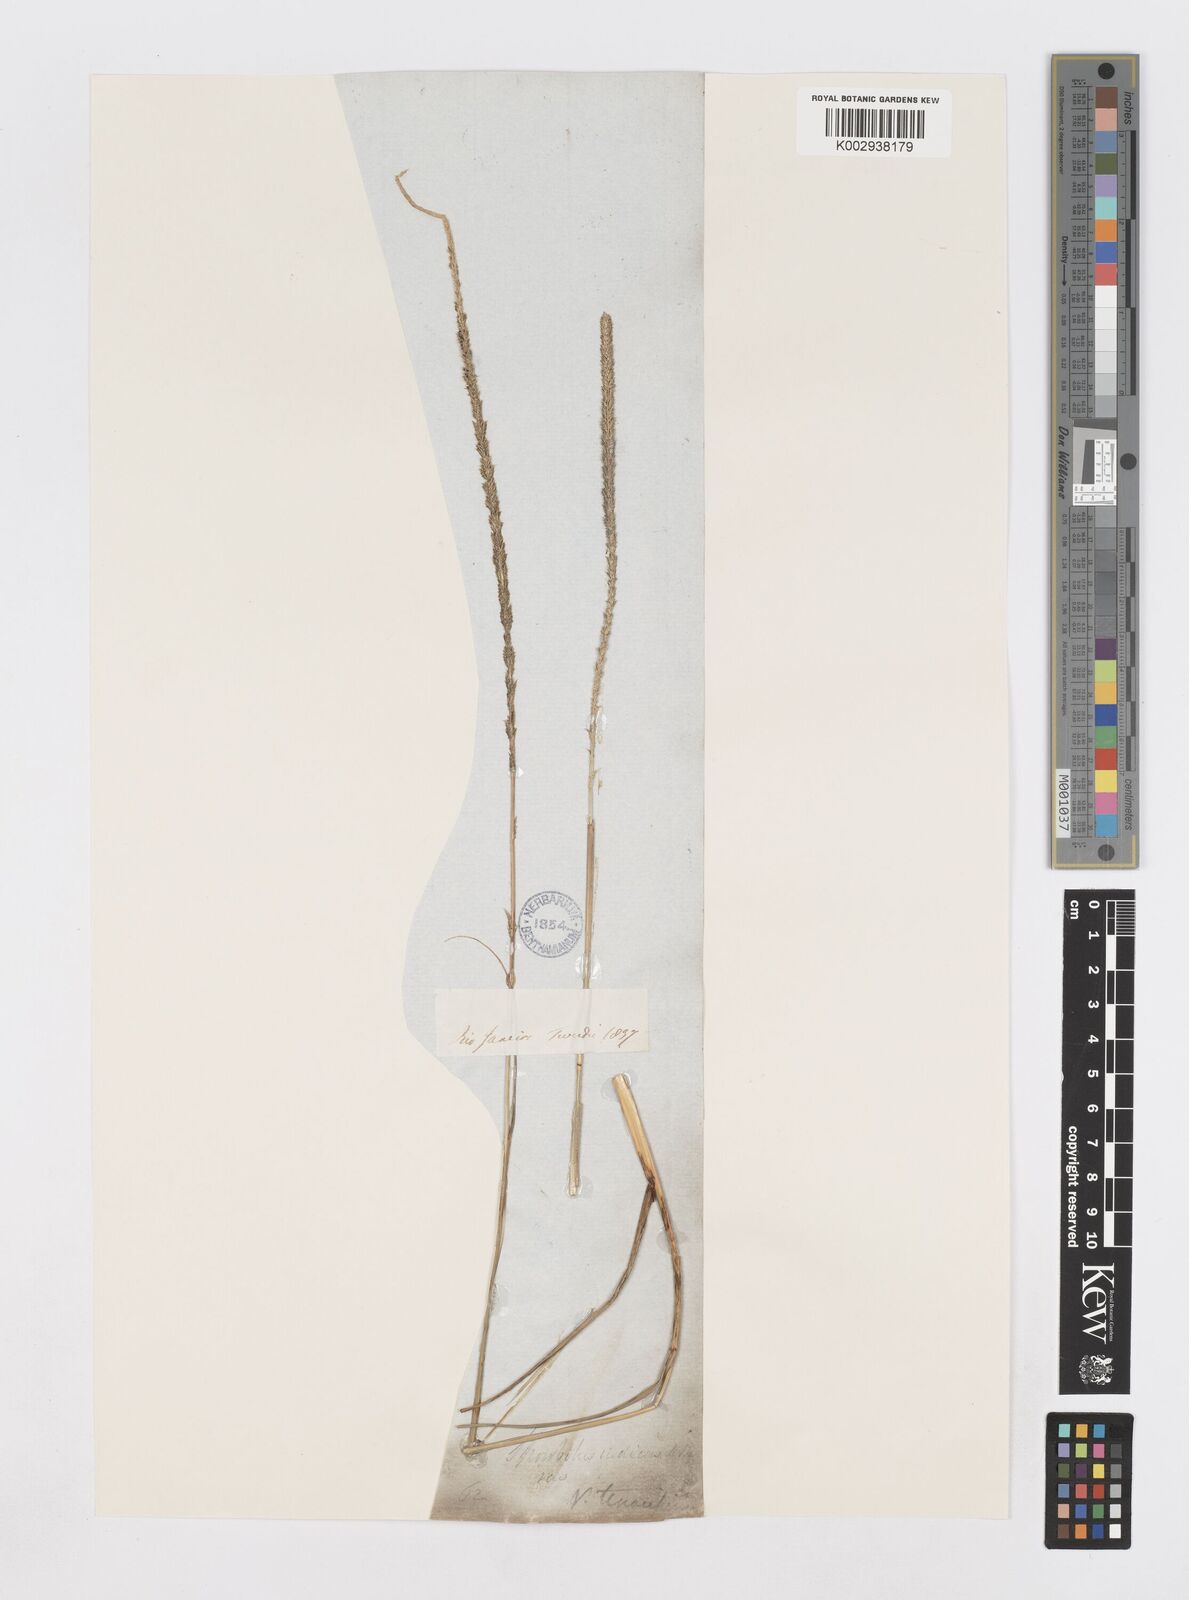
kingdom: Plantae
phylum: Tracheophyta
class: Liliopsida
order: Poales
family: Poaceae
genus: Sporobolus
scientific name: Sporobolus indicus
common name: Smut grass
